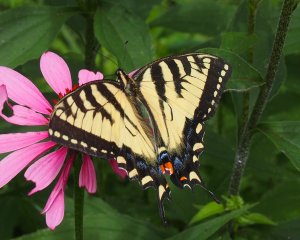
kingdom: Animalia
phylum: Arthropoda
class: Insecta
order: Lepidoptera
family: Papilionidae
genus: Pterourus
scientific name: Pterourus glaucus
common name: Eastern Tiger Swallowtail
